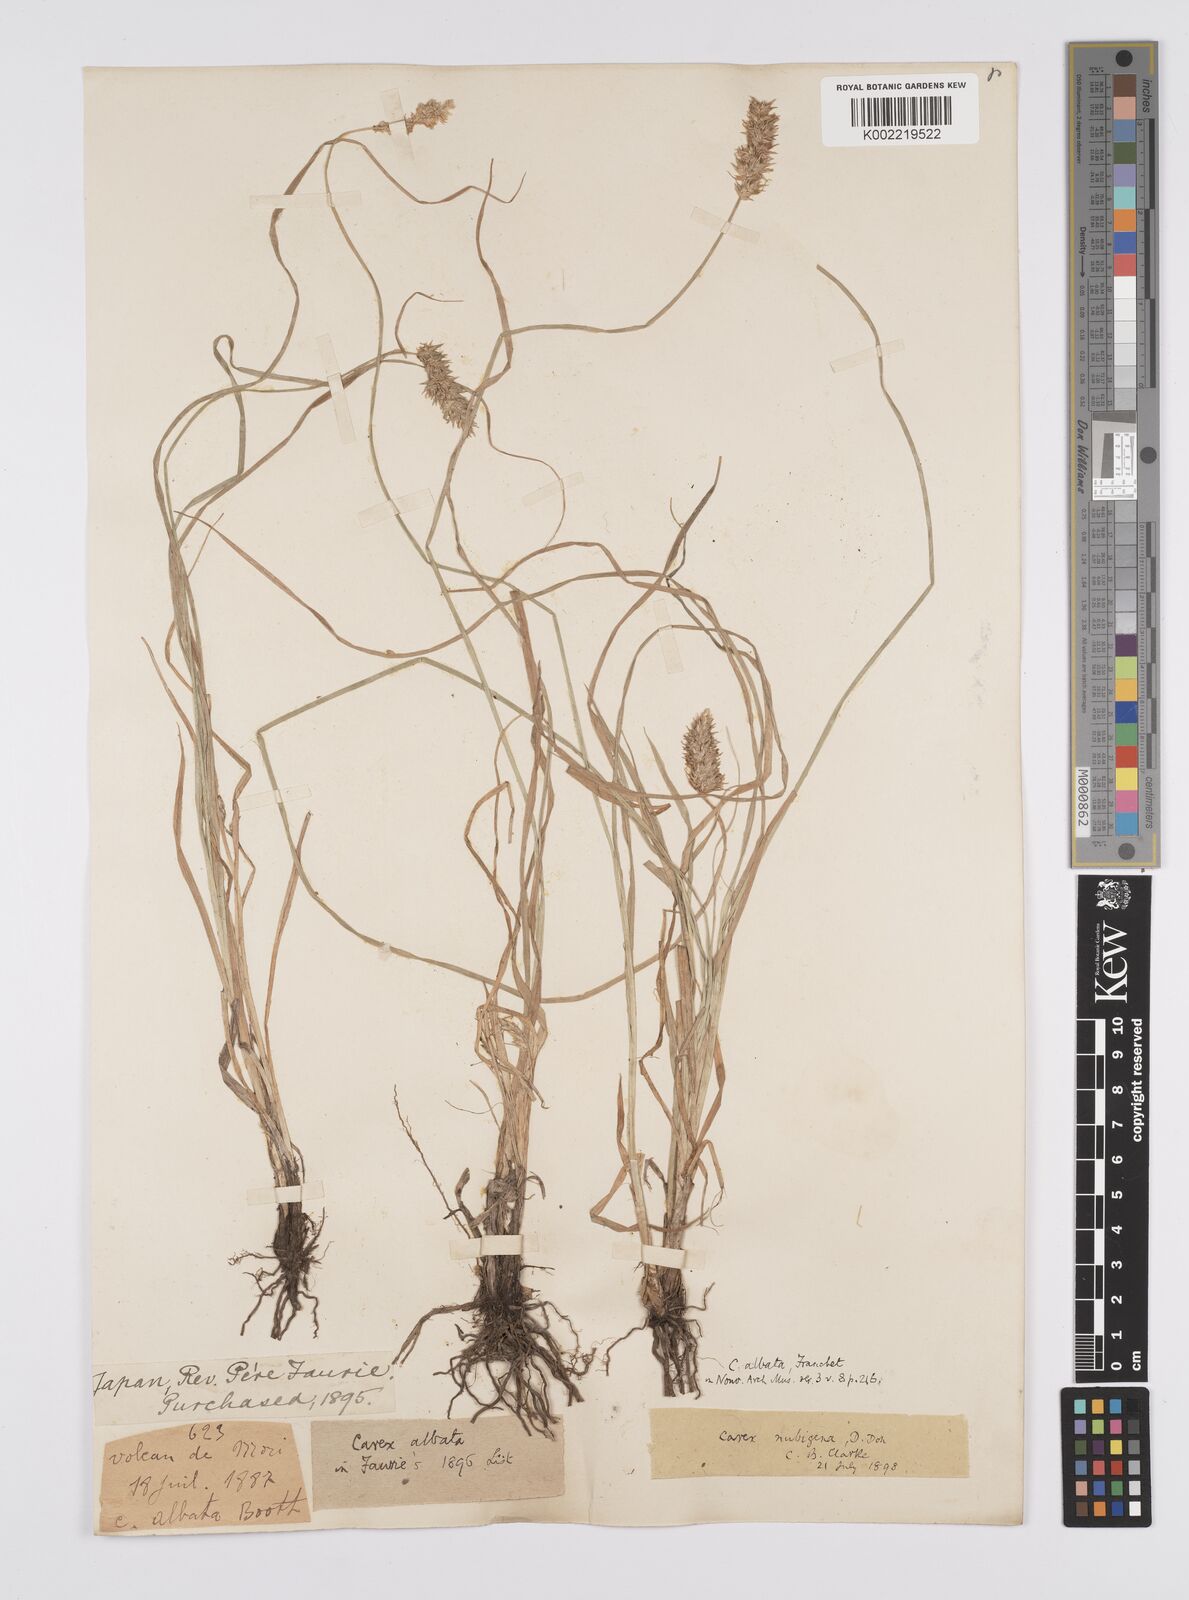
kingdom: Plantae
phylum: Tracheophyta
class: Liliopsida
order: Poales
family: Cyperaceae
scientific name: Cyperaceae
